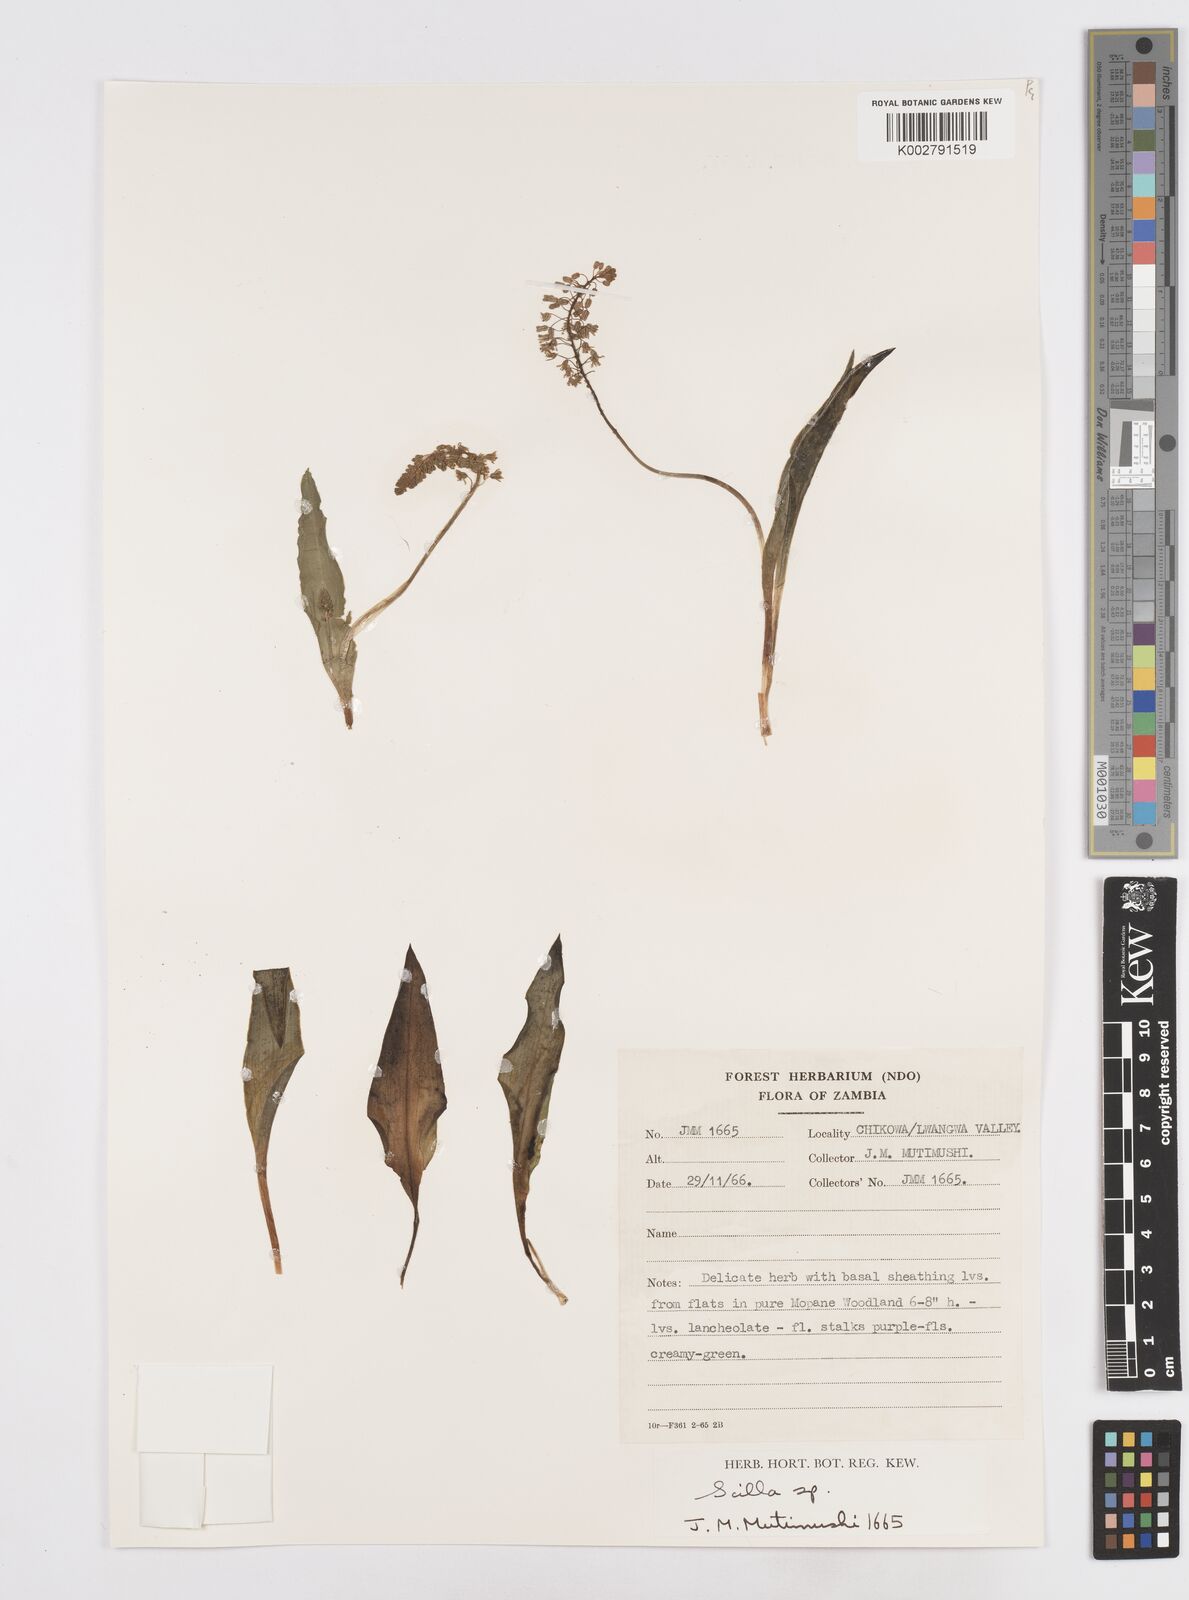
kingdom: Plantae
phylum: Tracheophyta
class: Liliopsida
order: Asparagales
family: Asparagaceae
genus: Scilla
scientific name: Scilla
